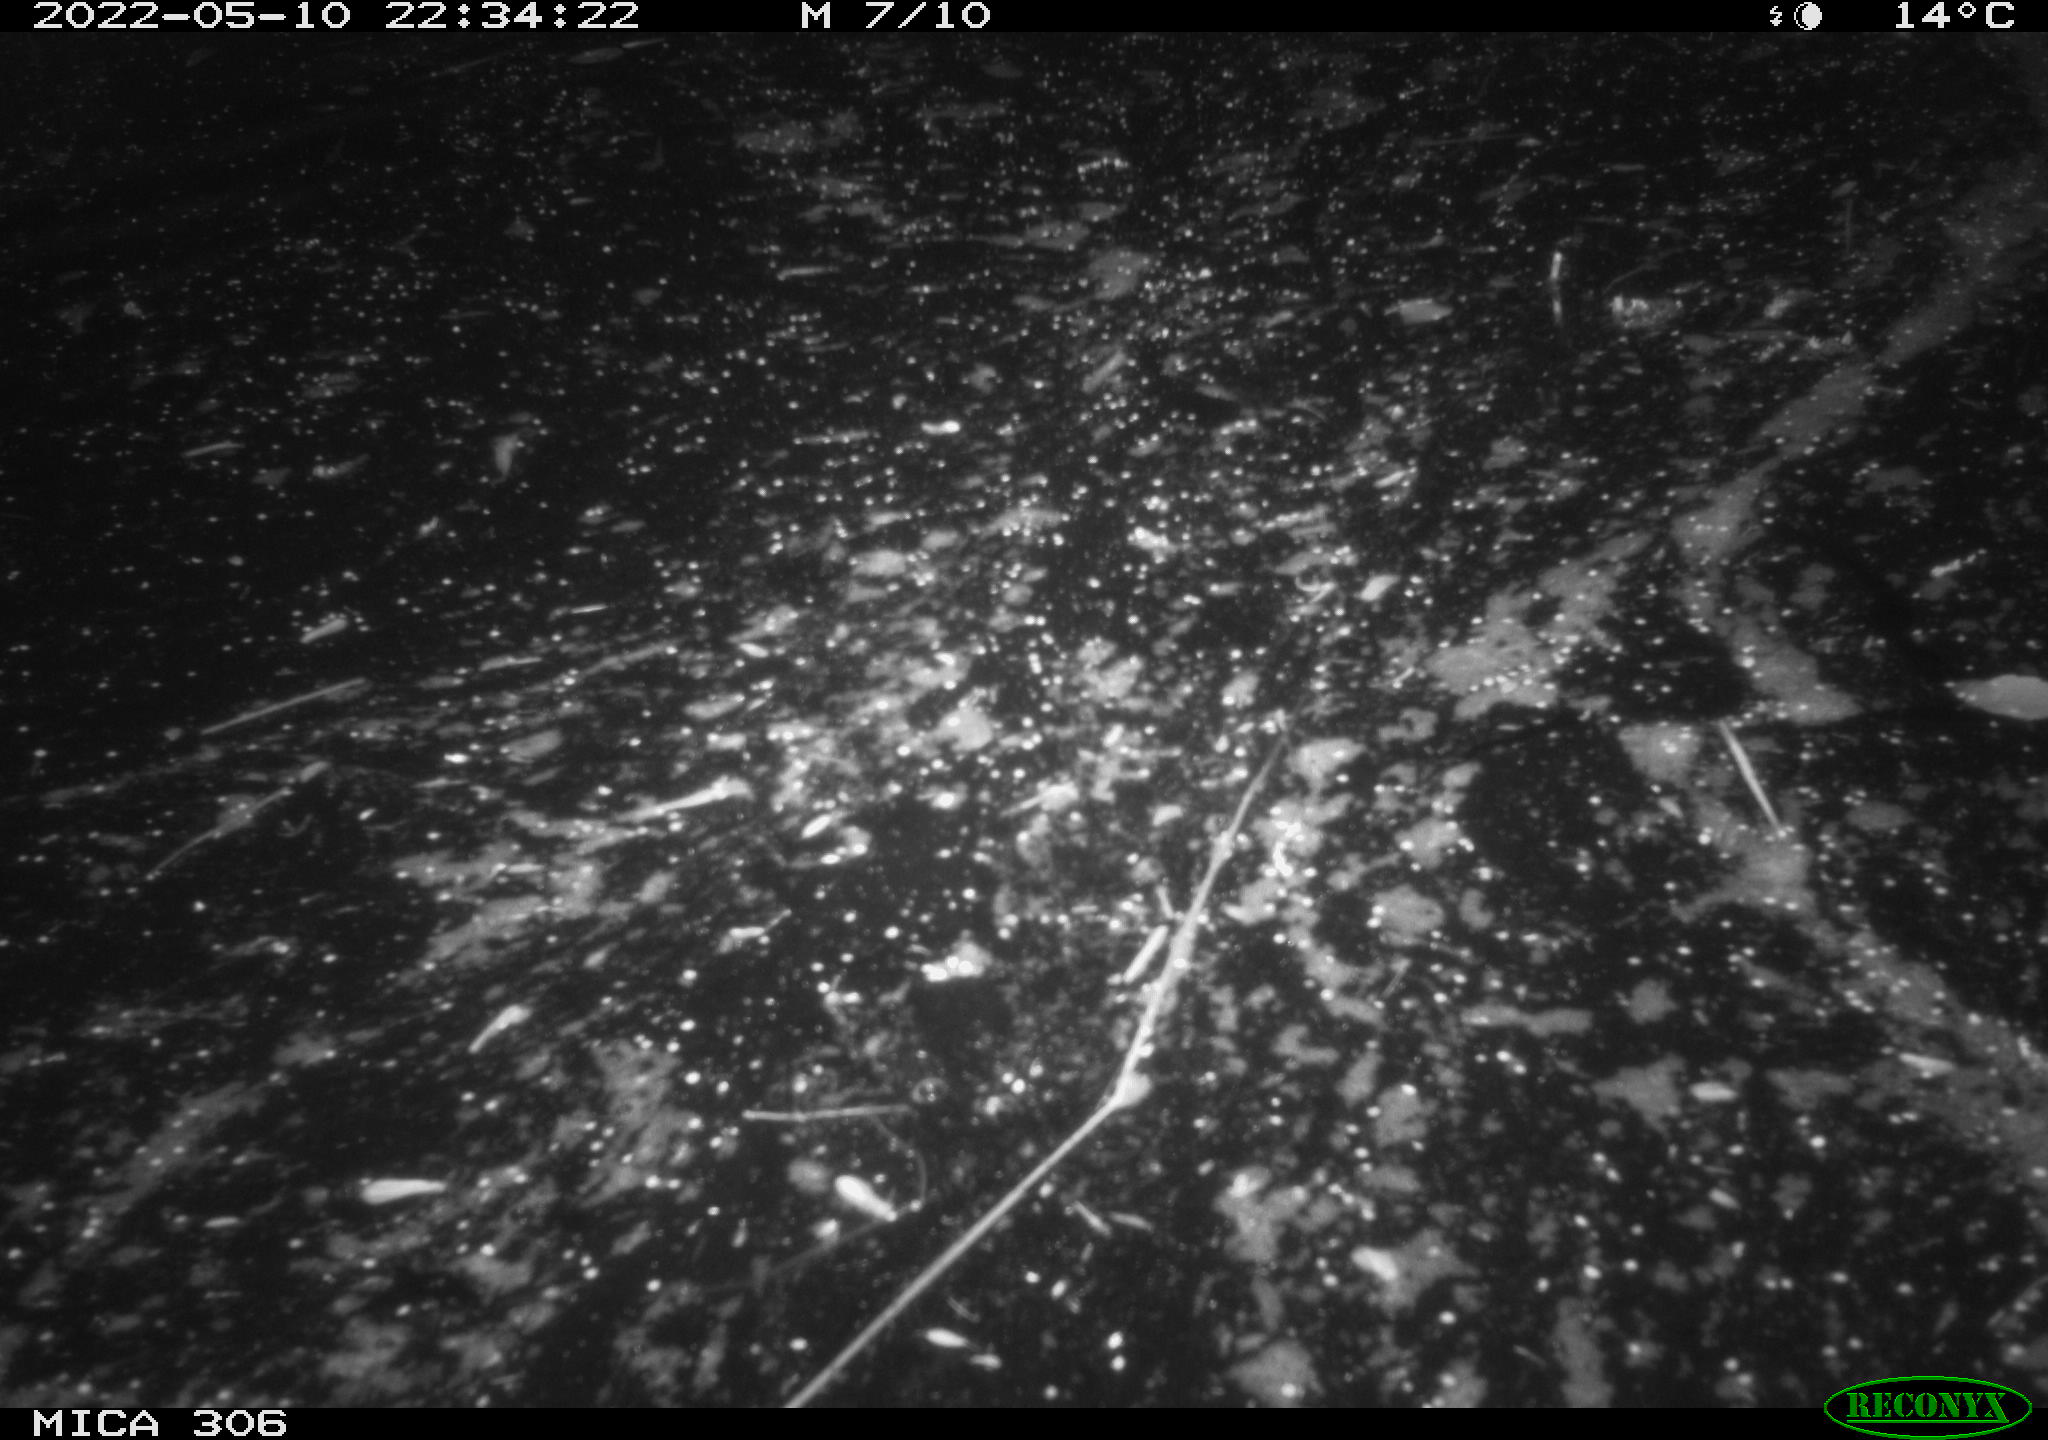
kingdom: Animalia
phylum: Chordata
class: Mammalia
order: Rodentia
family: Cricetidae
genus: Ondatra
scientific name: Ondatra zibethicus
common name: Muskrat
